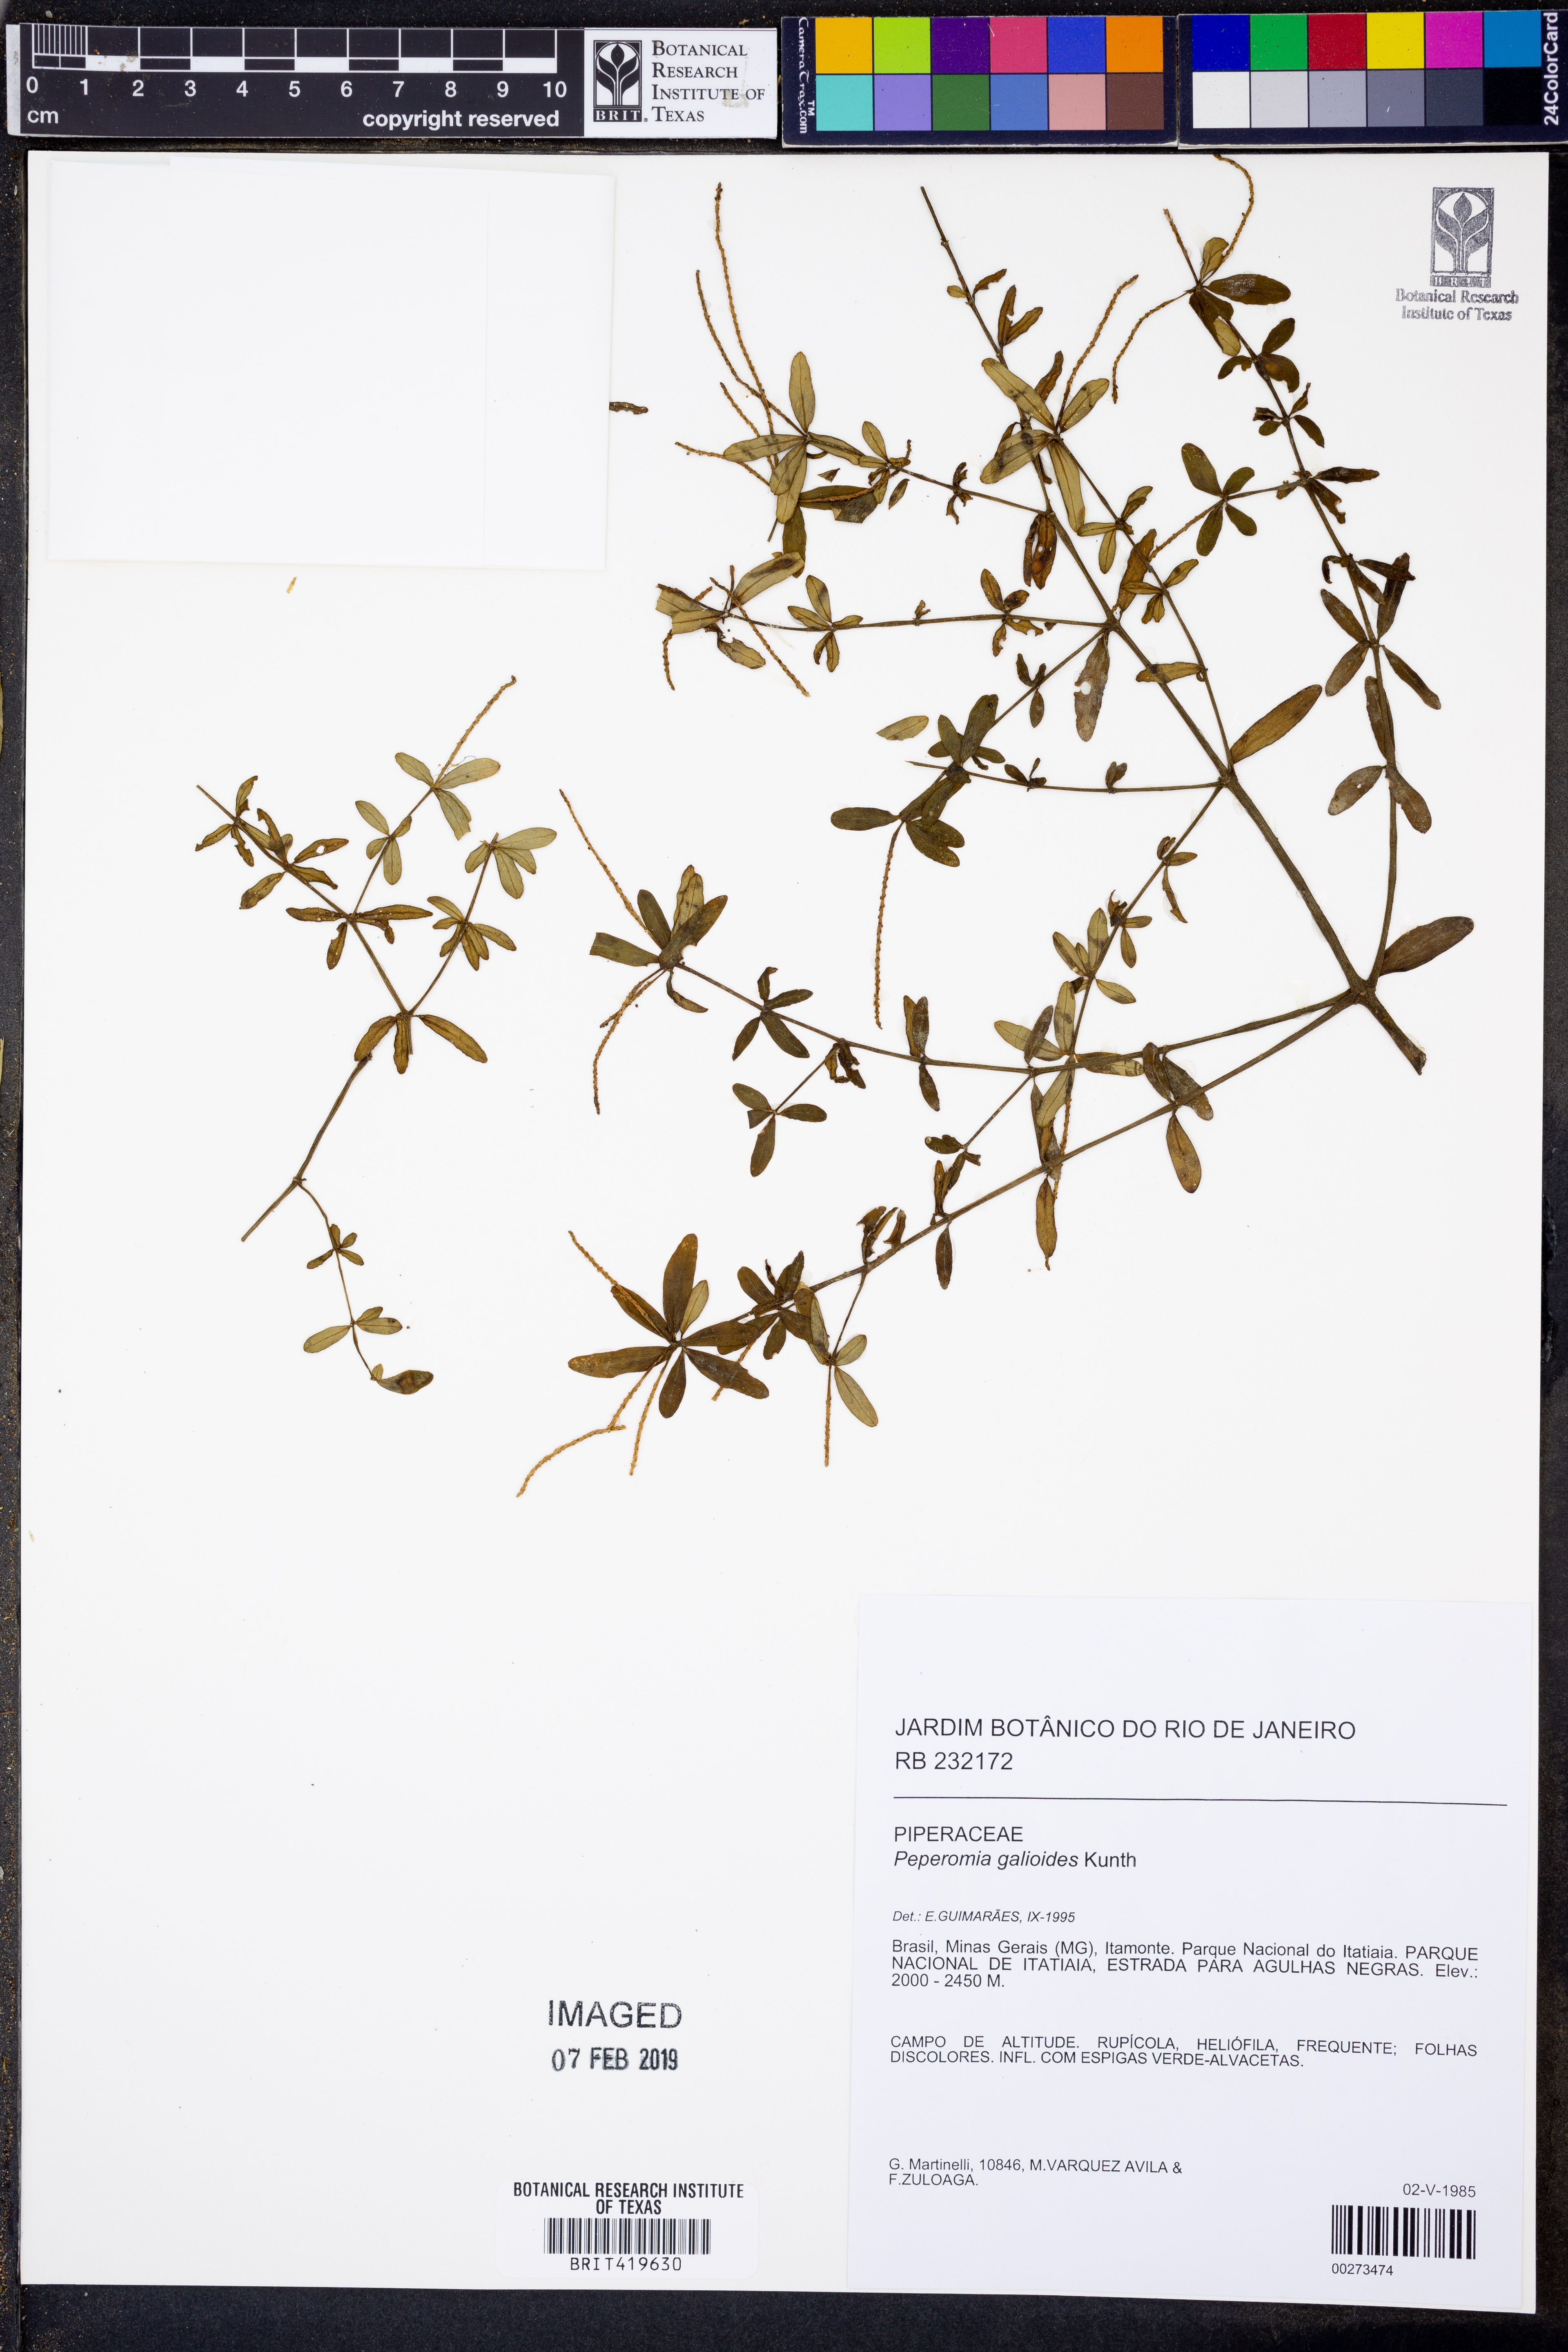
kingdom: Plantae
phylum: Tracheophyta
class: Magnoliopsida
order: Piperales
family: Piperaceae
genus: Peperomia
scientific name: Peperomia galioides
